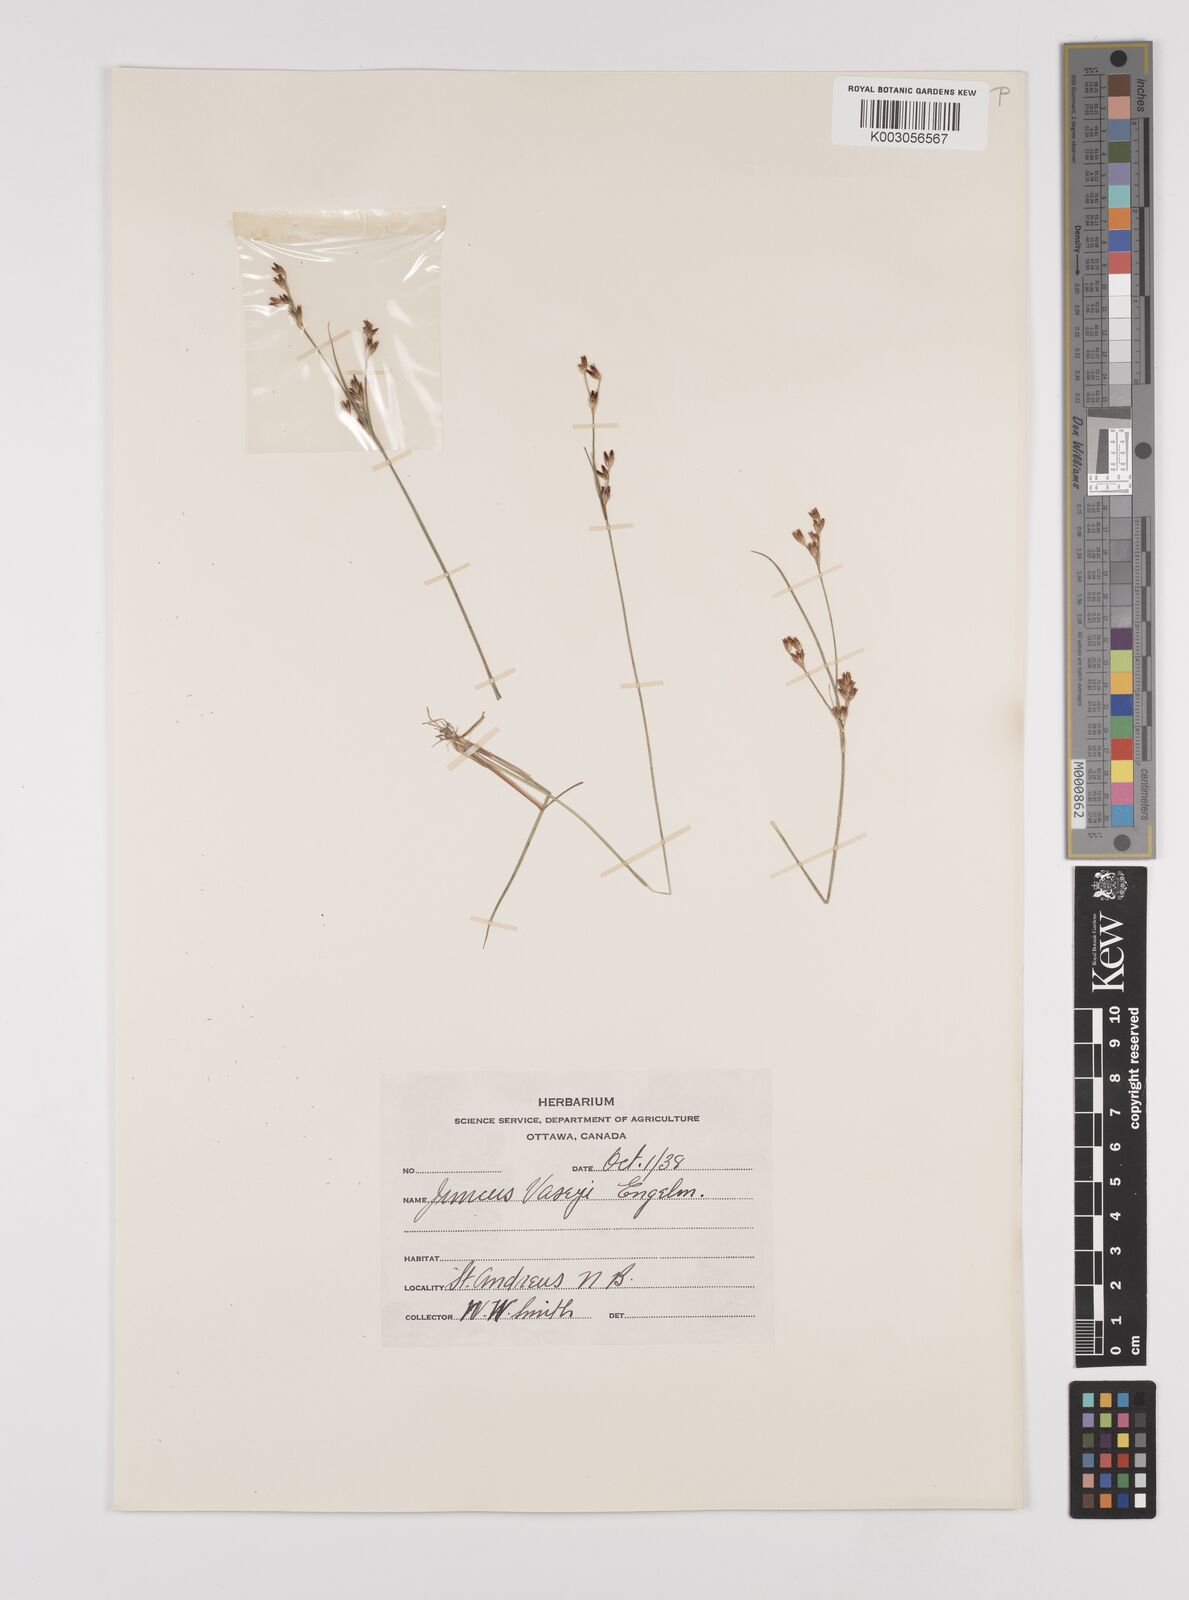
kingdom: Plantae
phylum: Tracheophyta
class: Liliopsida
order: Poales
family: Juncaceae
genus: Juncus
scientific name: Juncus vaseyi
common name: Big-headed rush
